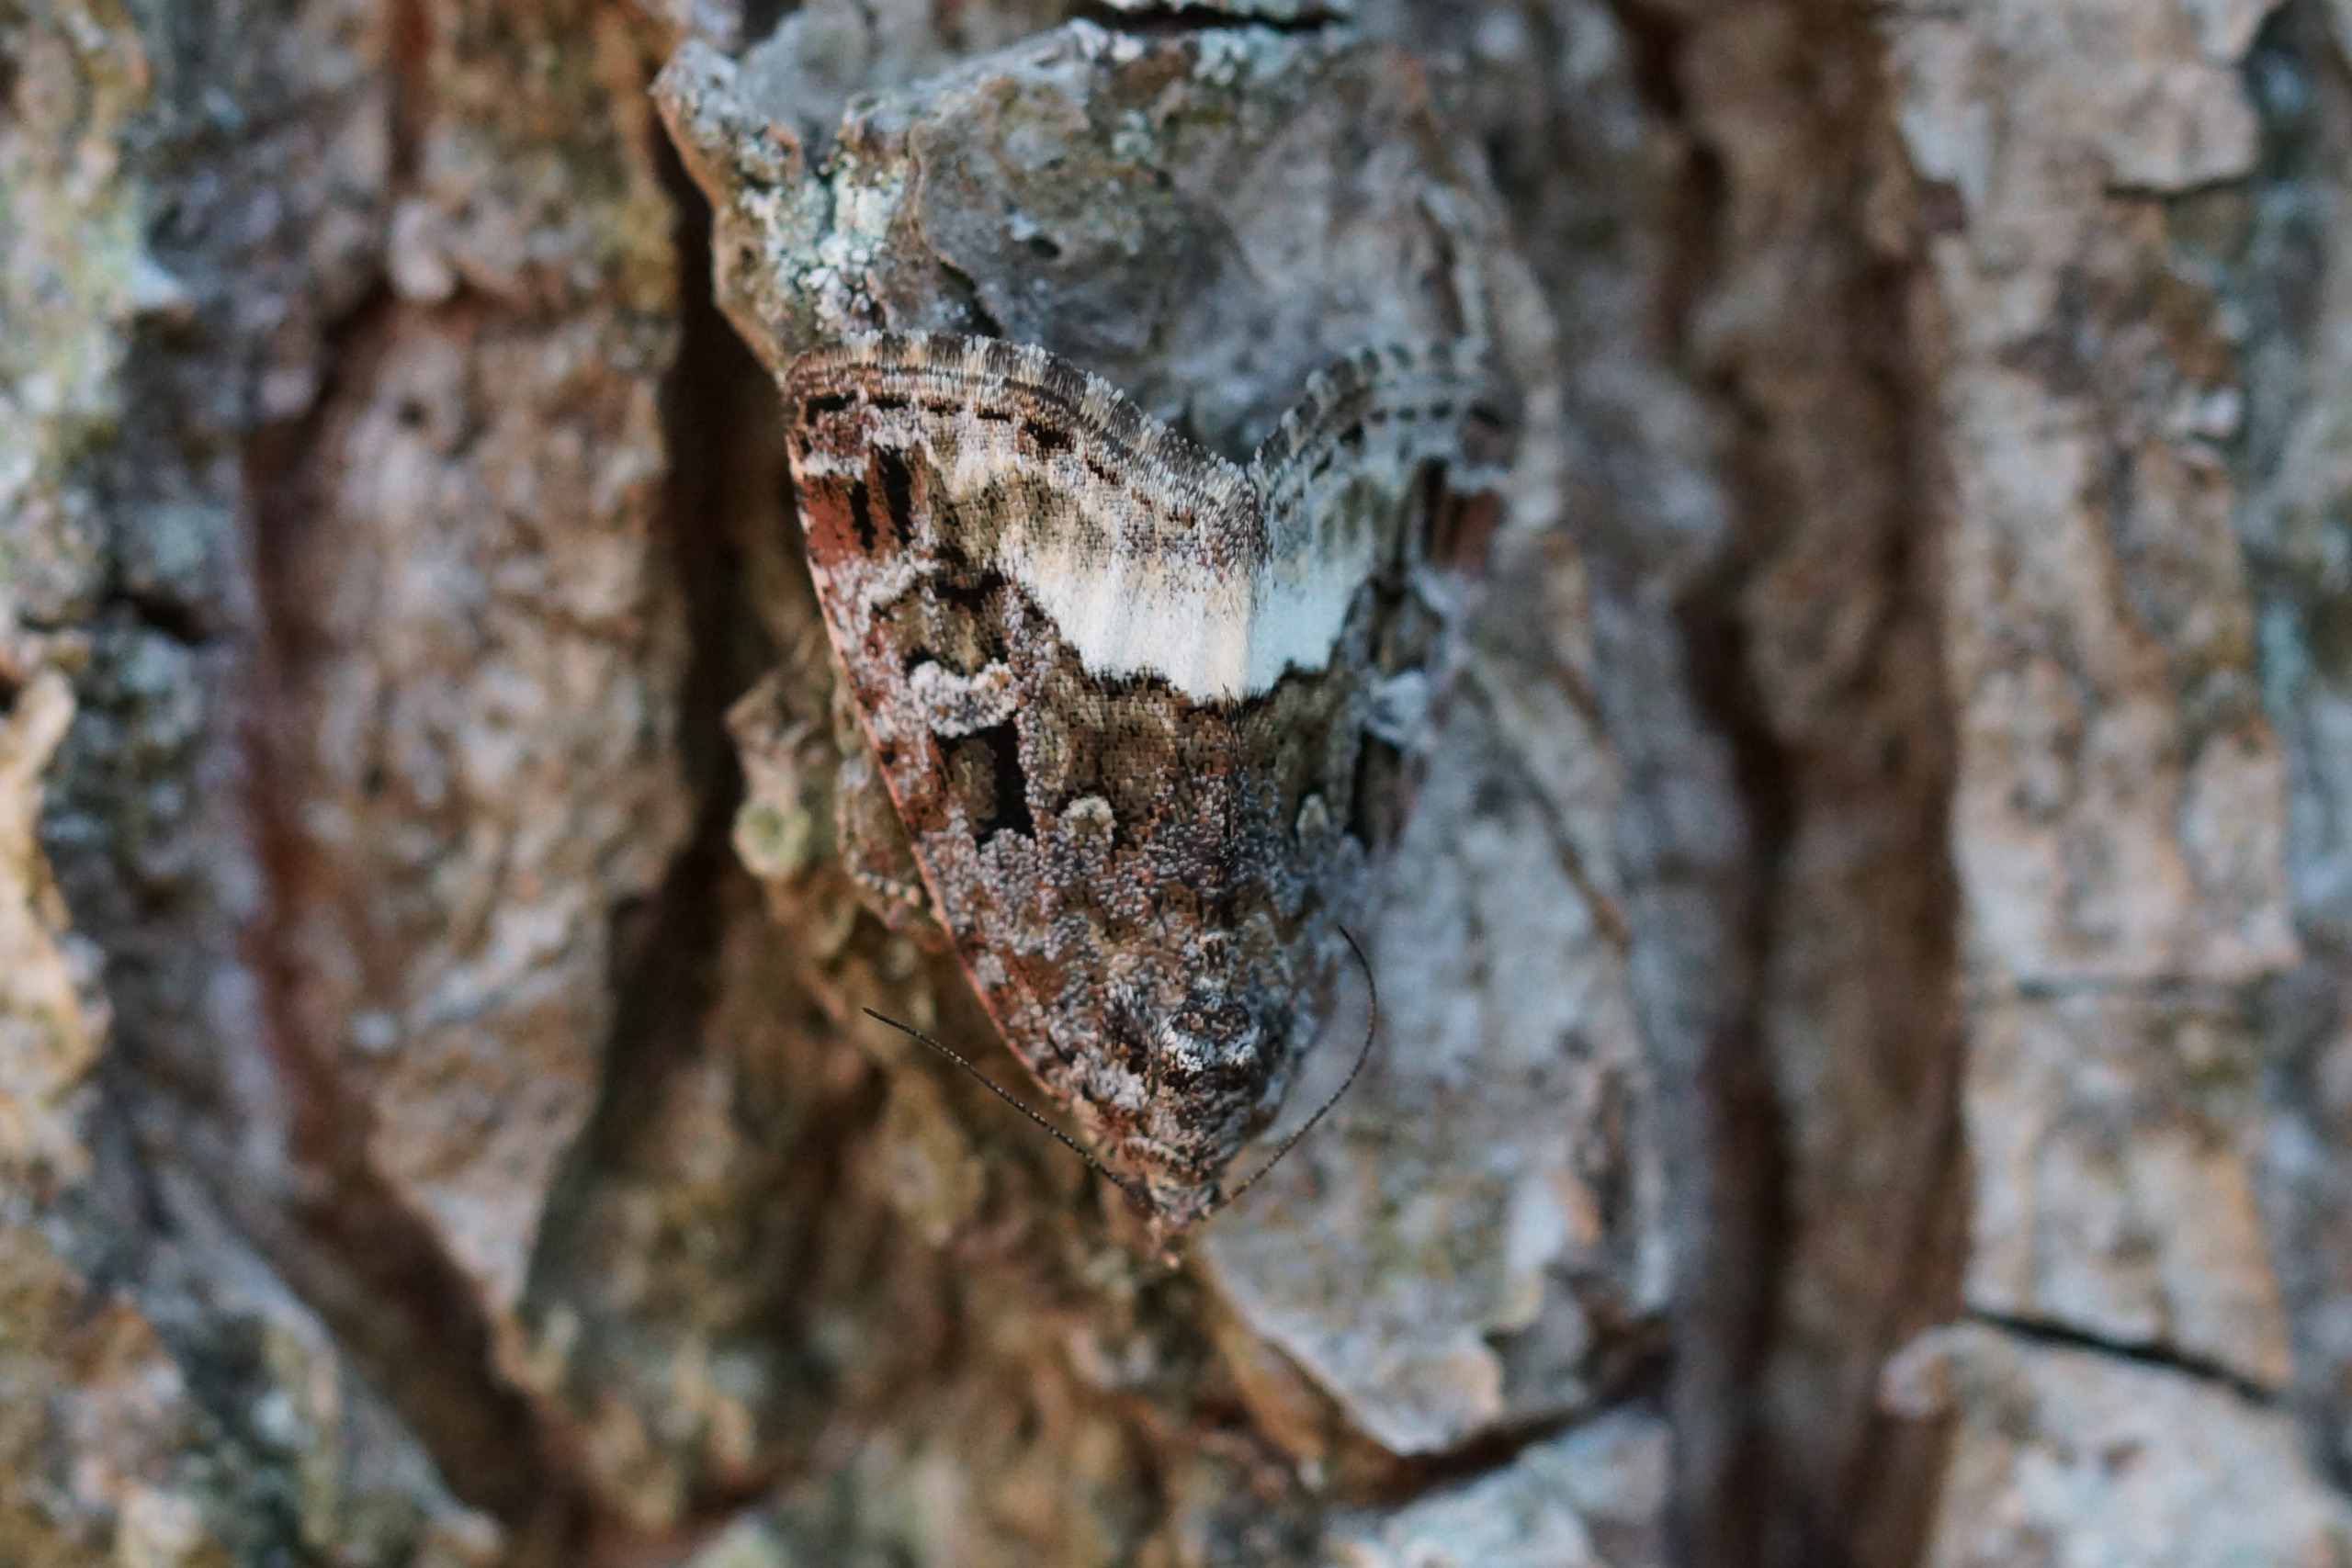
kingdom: Animalia
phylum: Arthropoda
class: Insecta
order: Lepidoptera
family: Noctuidae
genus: Deltote
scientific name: Deltote pygarga
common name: Hvidhjørnet dagugle
